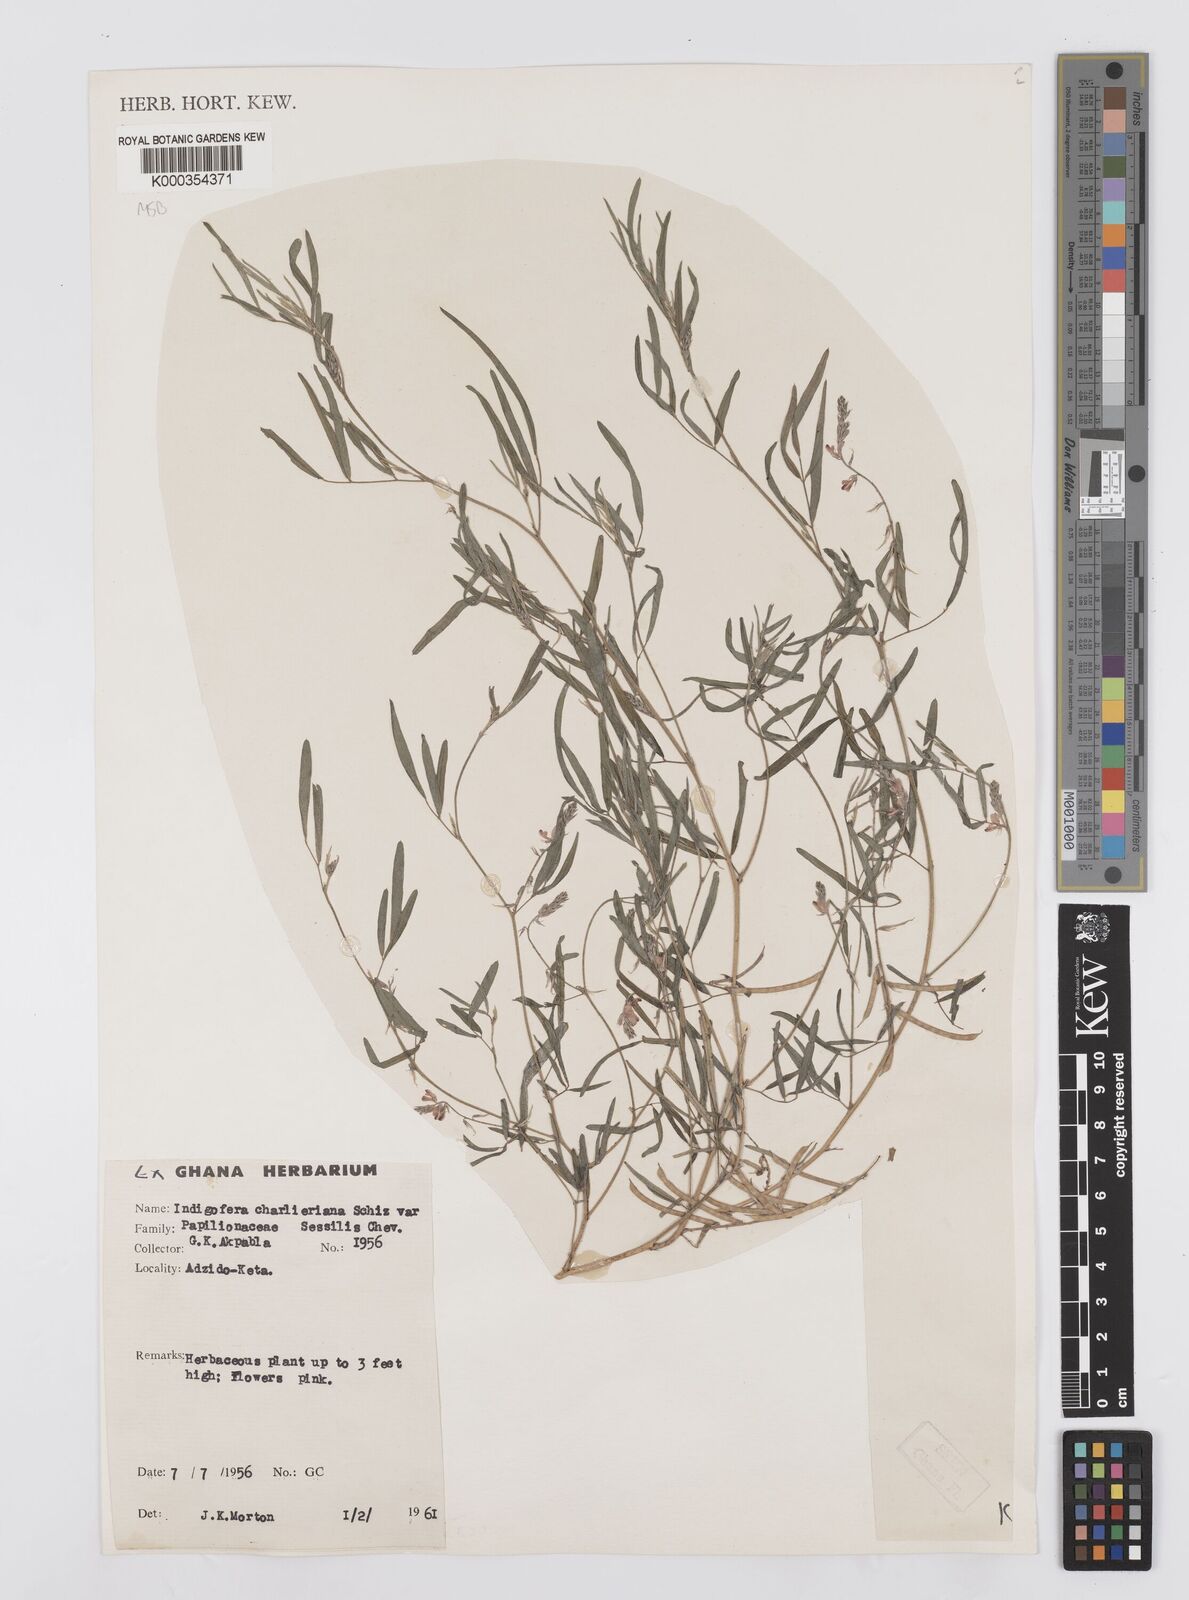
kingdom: Plantae
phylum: Tracheophyta
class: Magnoliopsida
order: Fabales
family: Fabaceae
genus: Indigofera
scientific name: Indigofera aspera
